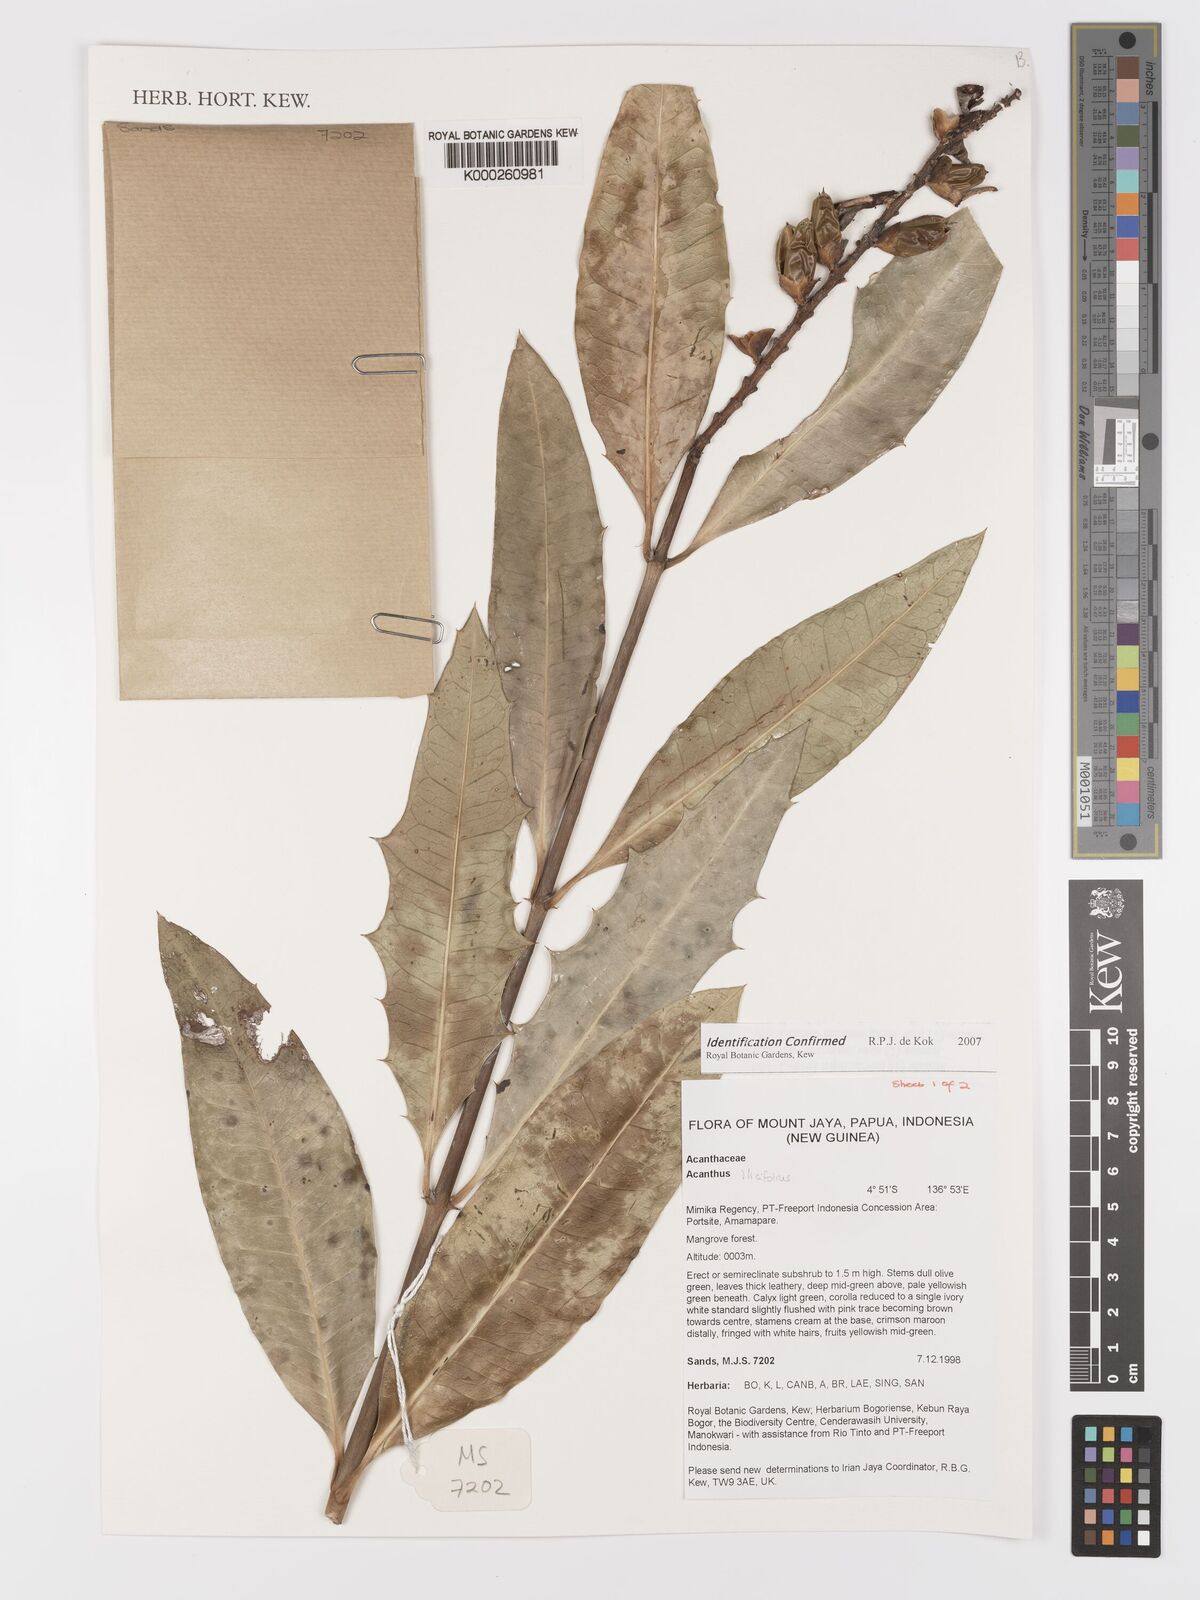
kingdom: Plantae
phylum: Tracheophyta
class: Magnoliopsida
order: Lamiales
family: Acanthaceae
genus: Acanthus
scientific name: Acanthus ilicifolius
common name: Holy mangrove
